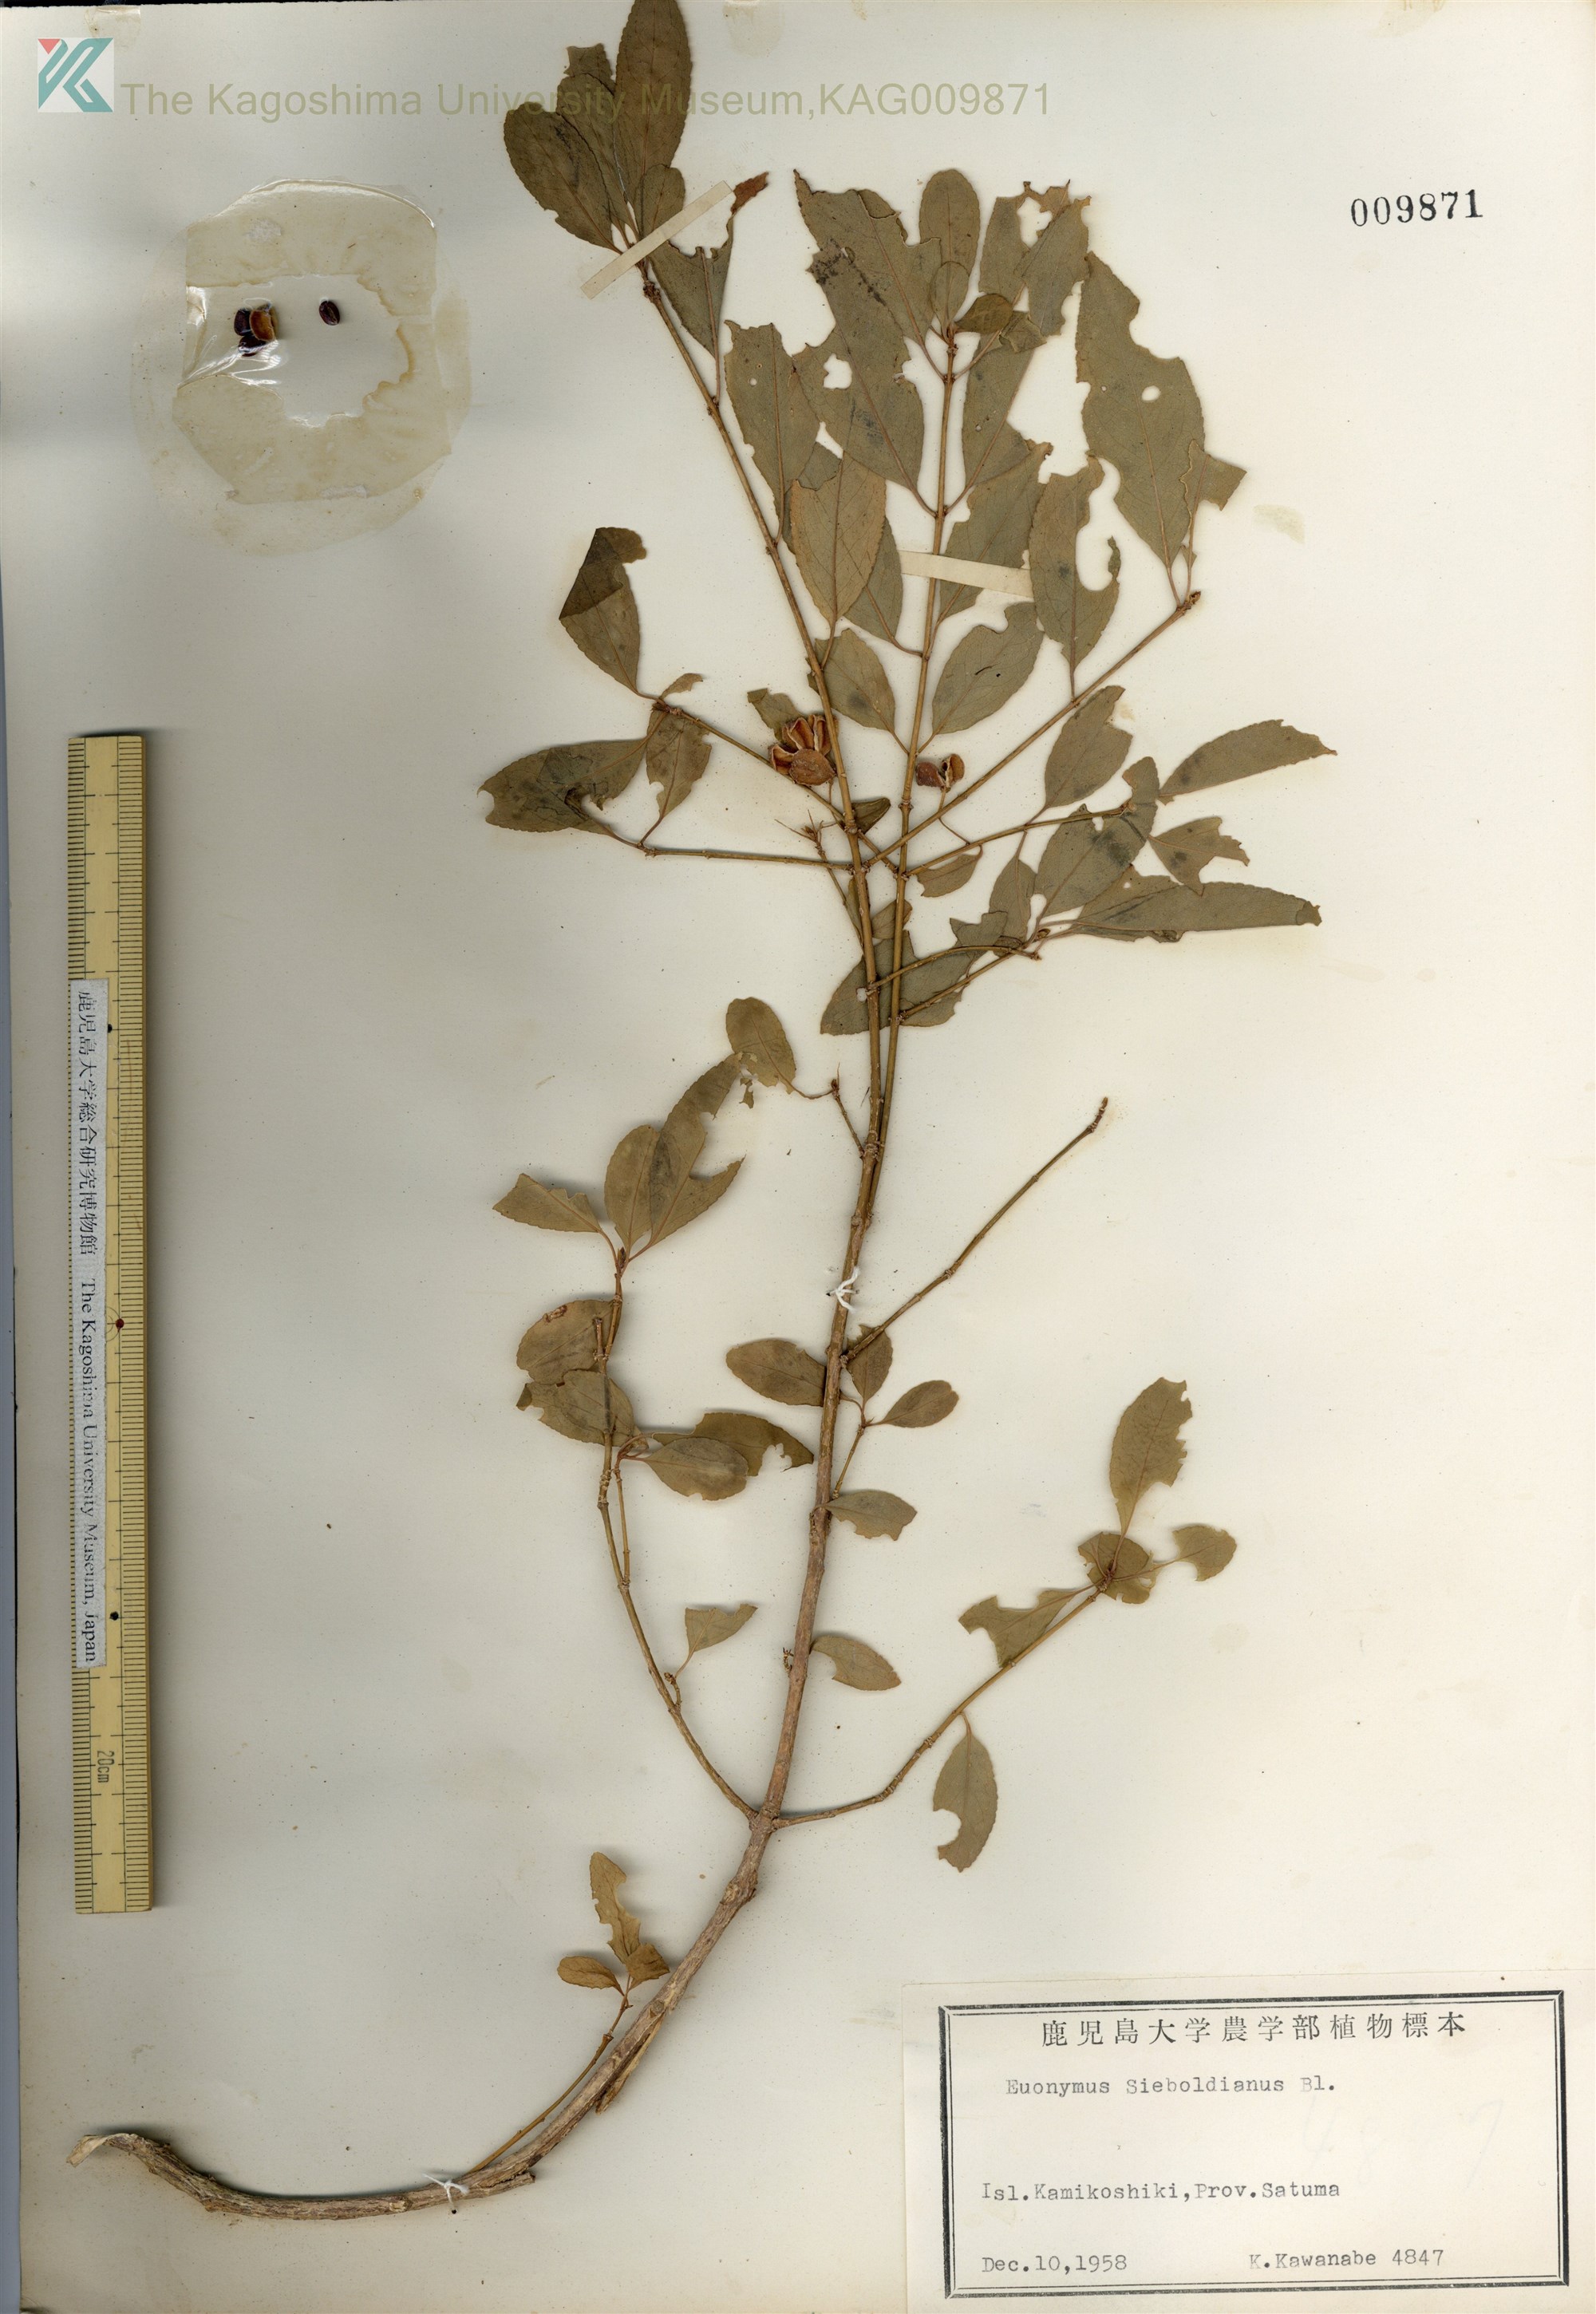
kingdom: Plantae
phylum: Tracheophyta
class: Magnoliopsida
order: Celastrales
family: Celastraceae
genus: Euonymus
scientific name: Euonymus hamiltonianus
